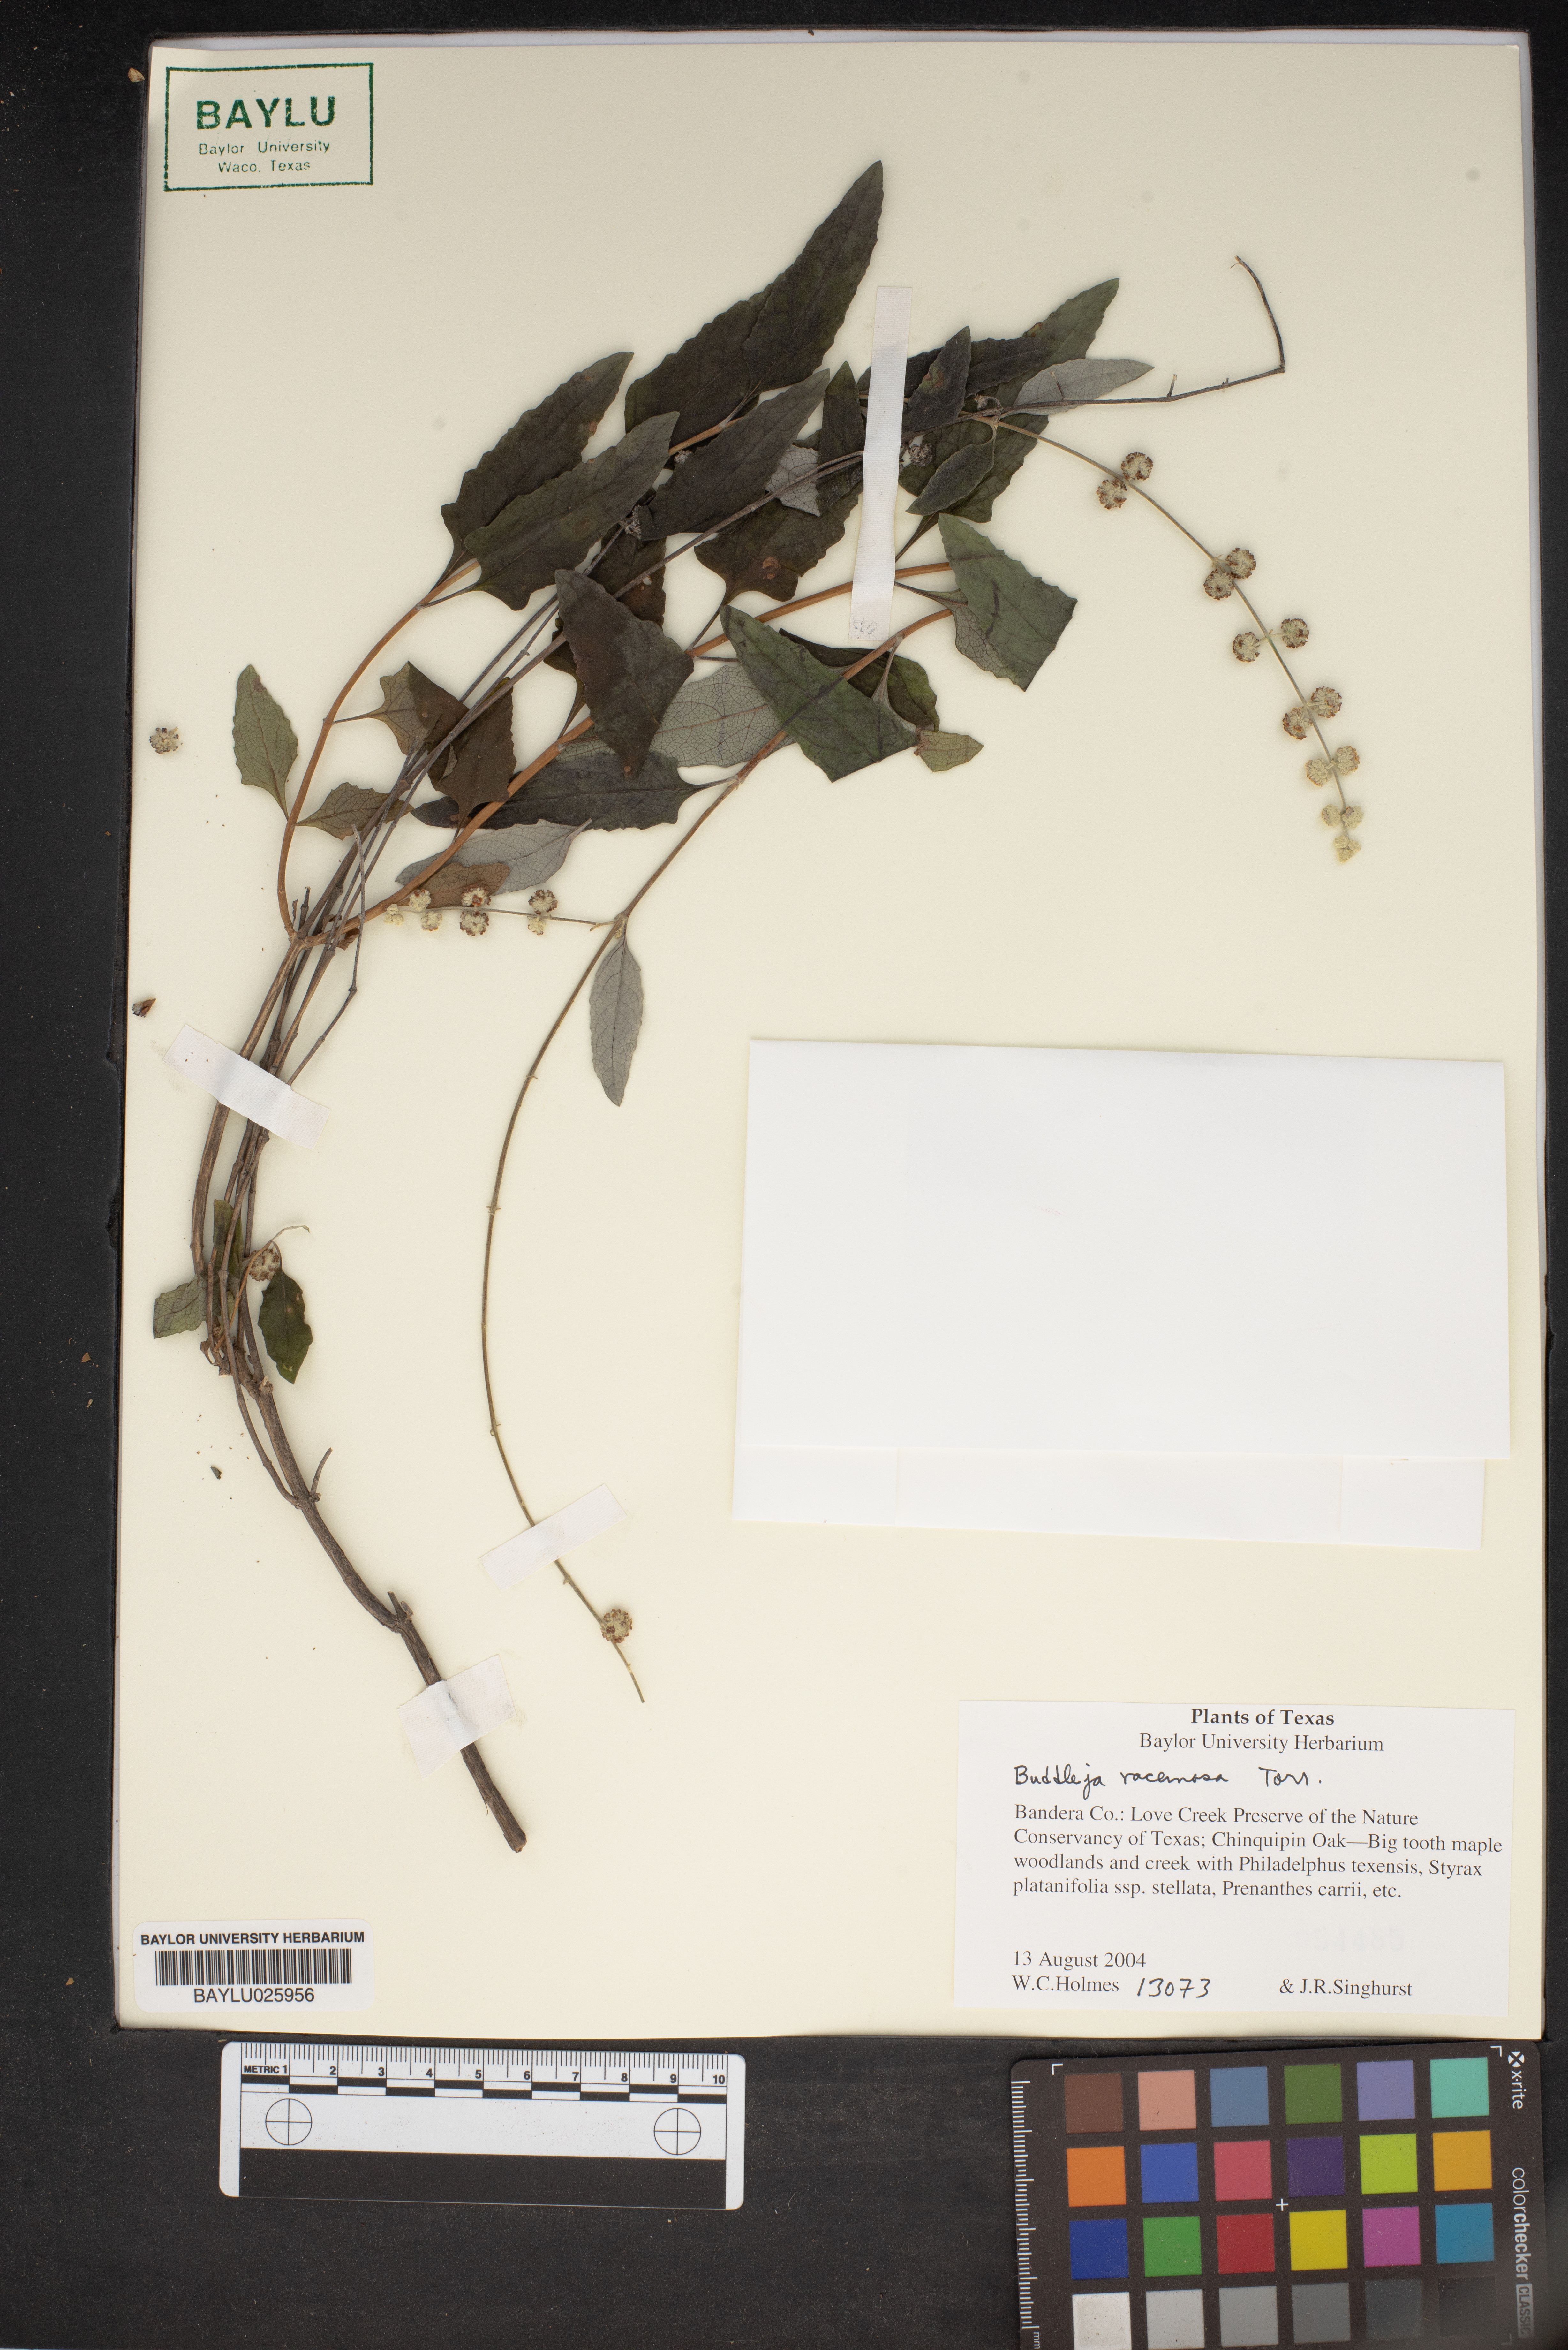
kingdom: Plantae
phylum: Tracheophyta
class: Magnoliopsida
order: Lamiales
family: Scrophulariaceae
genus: Buddleja
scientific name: Buddleja racemosa
